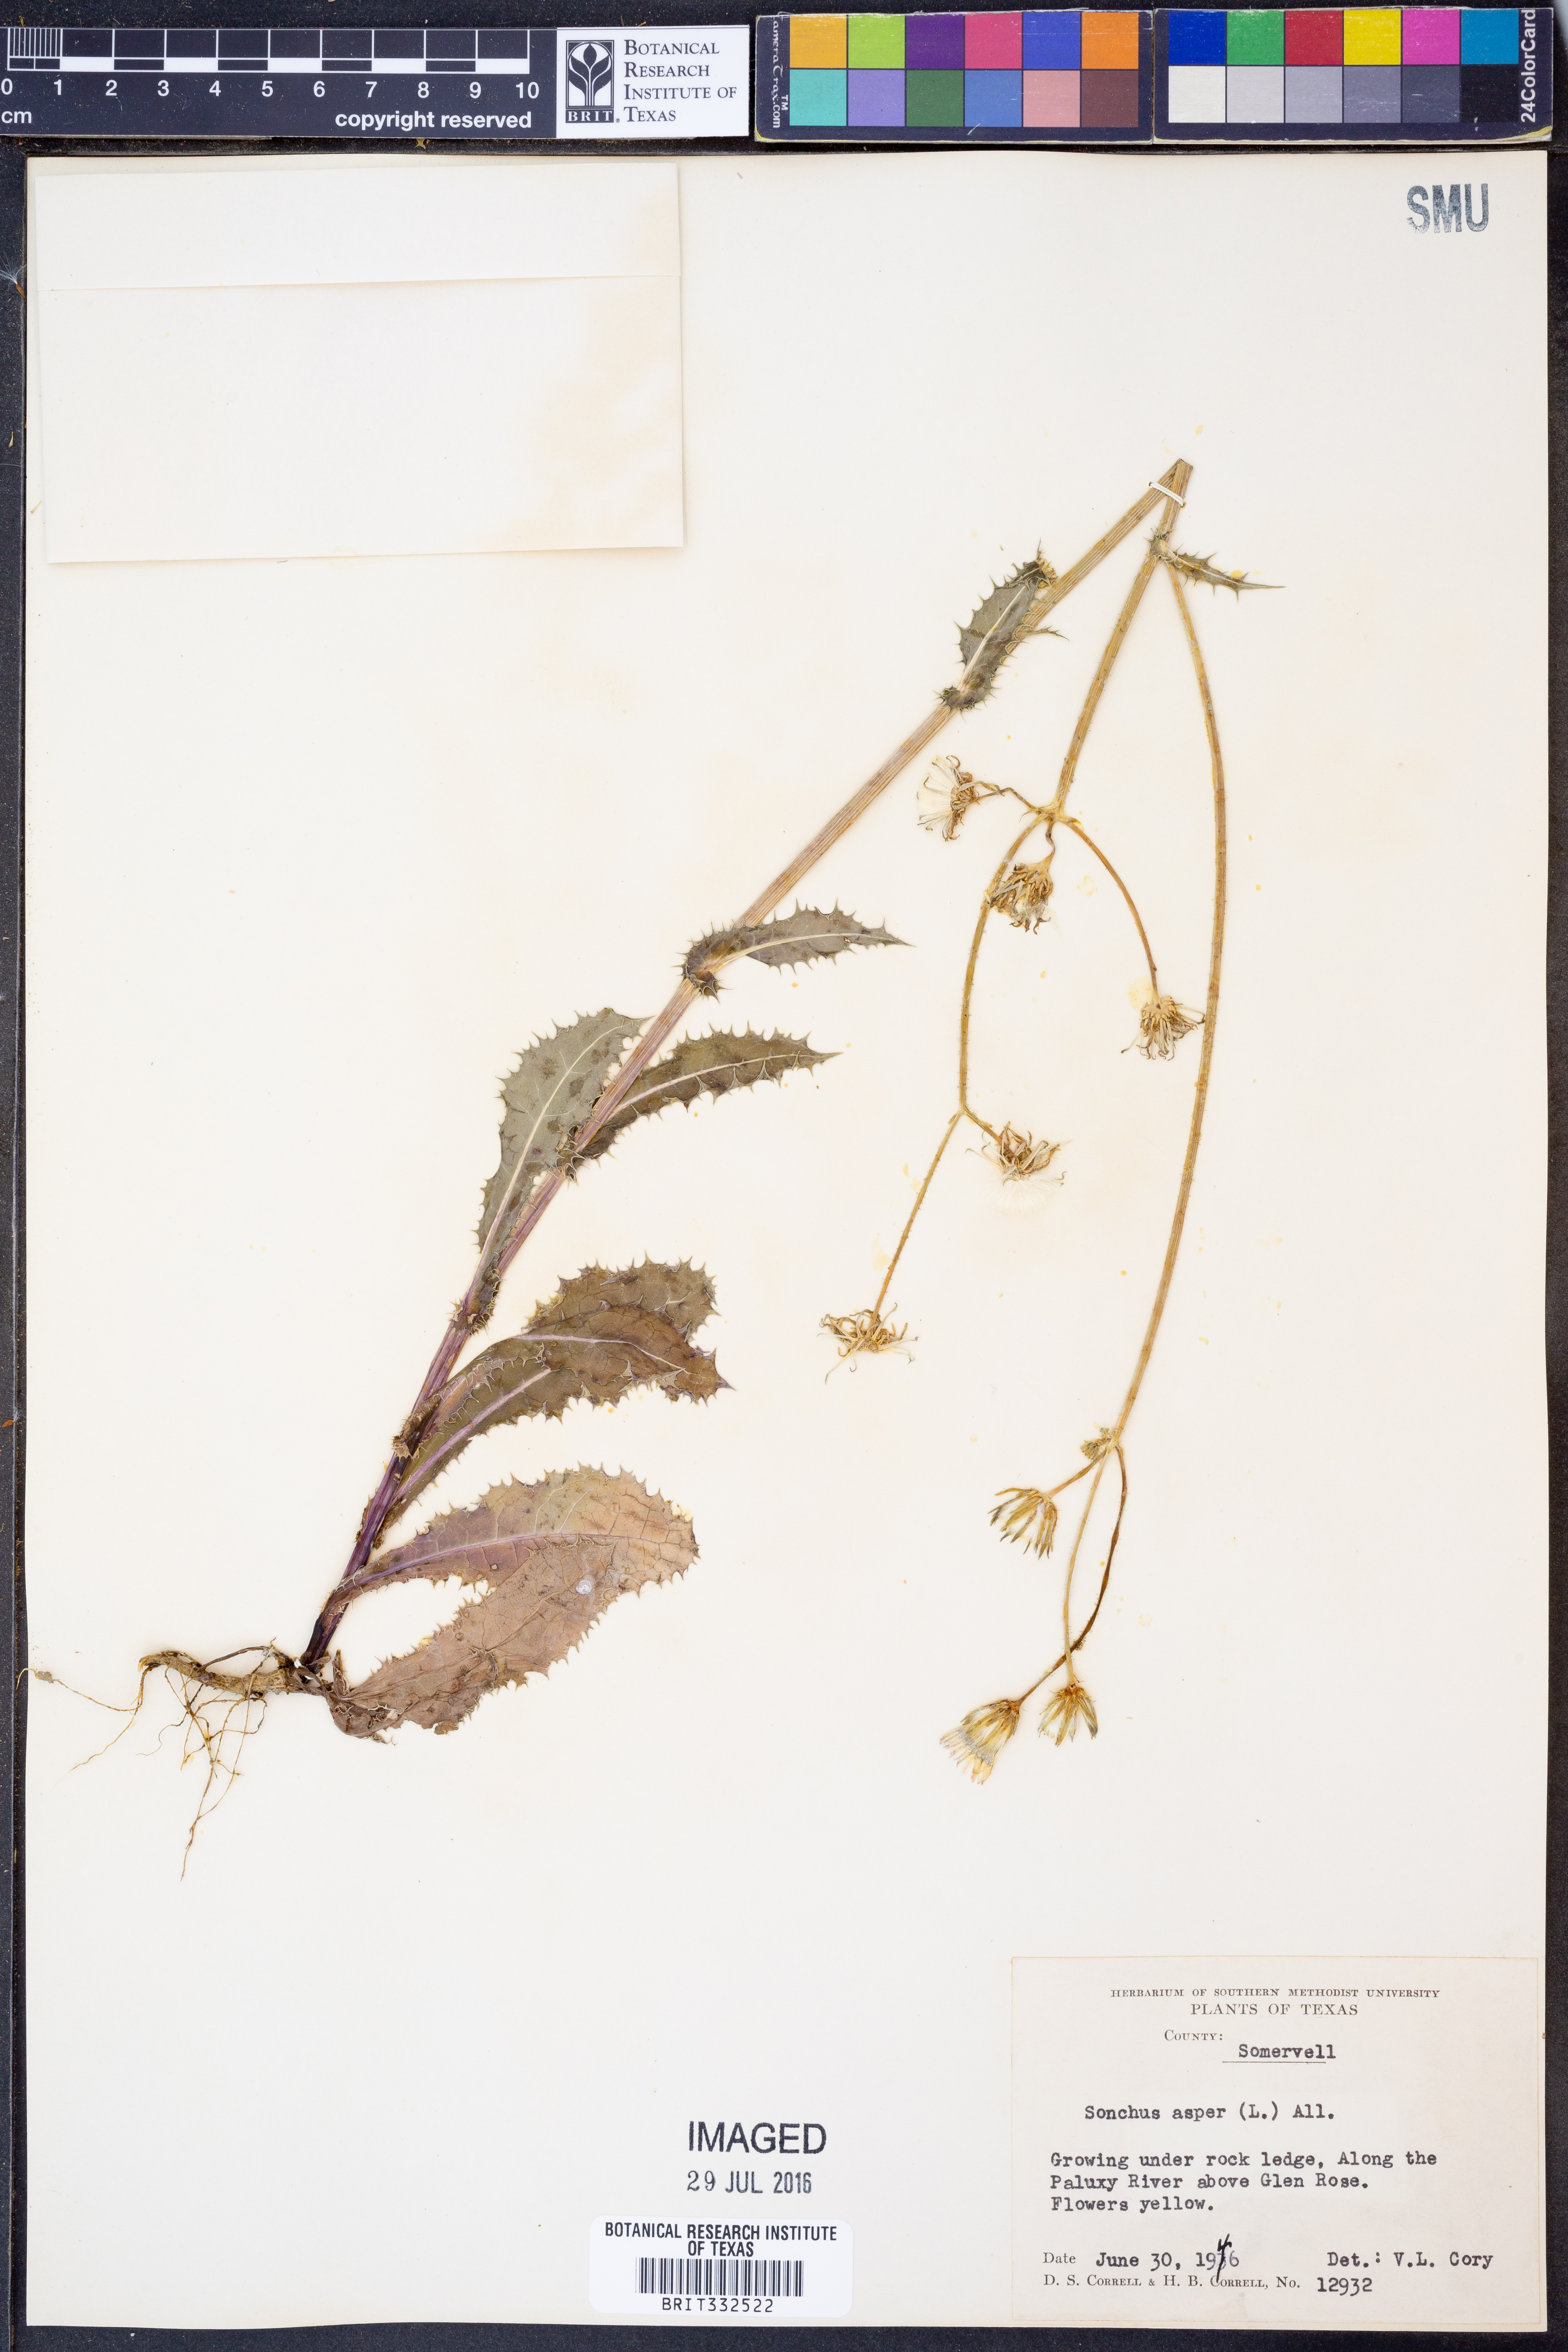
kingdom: Plantae
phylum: Tracheophyta
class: Magnoliopsida
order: Asterales
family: Asteraceae
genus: Sonchus
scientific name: Sonchus asper
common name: Prickly sow-thistle
